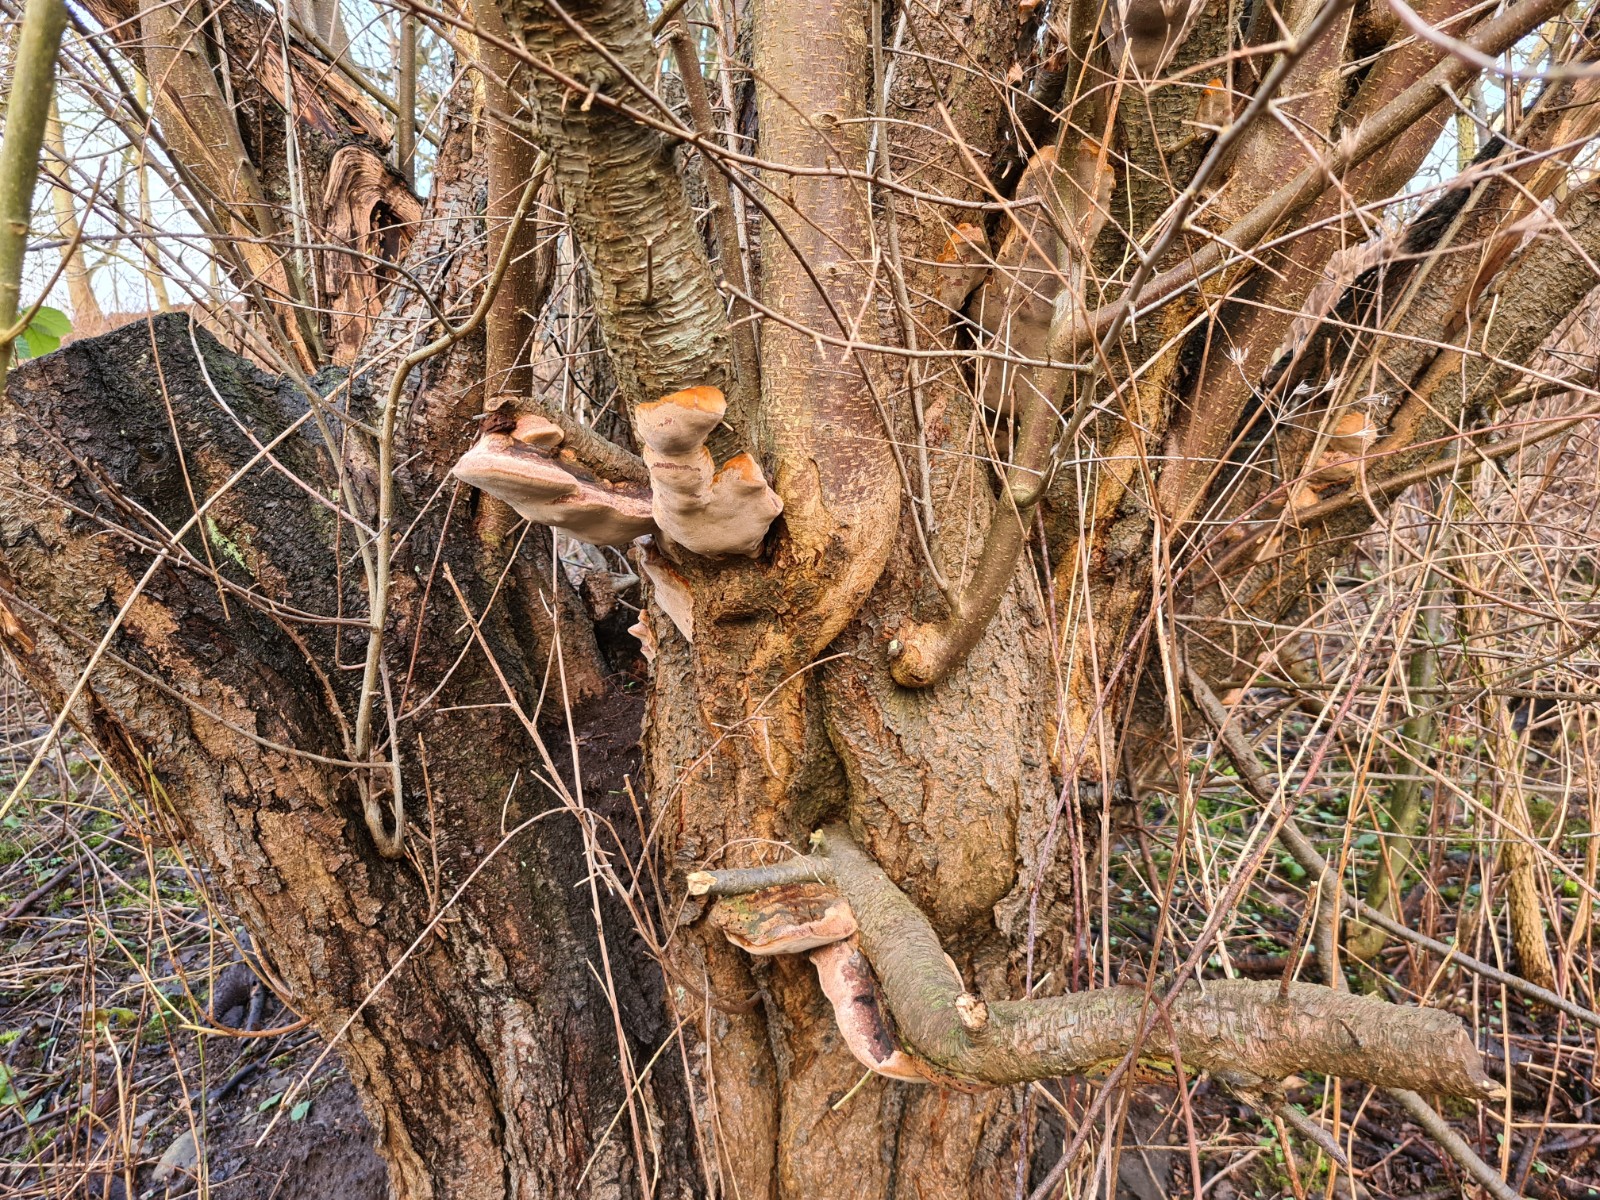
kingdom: Fungi
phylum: Basidiomycota
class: Agaricomycetes
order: Hymenochaetales
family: Hymenochaetaceae
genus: Phellinus
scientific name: Phellinus pomaceus
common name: blomme-ildporesvamp
